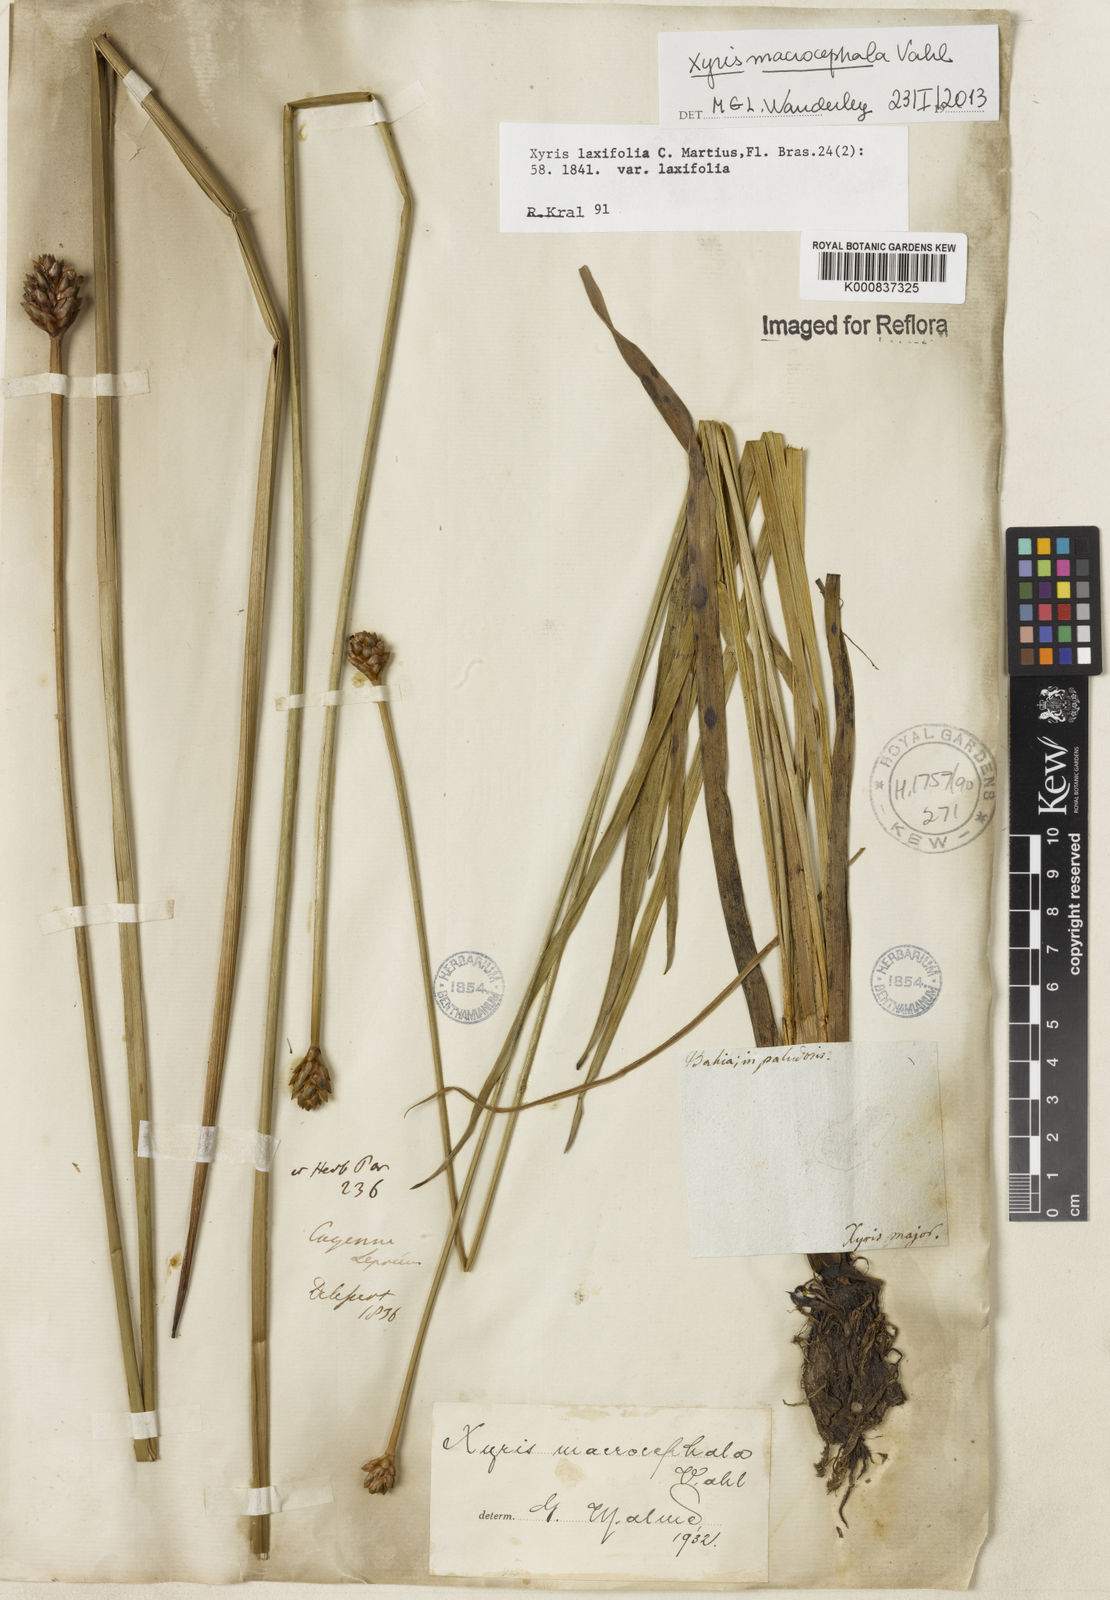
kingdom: Plantae
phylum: Tracheophyta
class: Liliopsida
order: Poales
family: Xyridaceae
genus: Xyris
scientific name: Xyris jupicai
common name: Richard's yelloweyed grass
